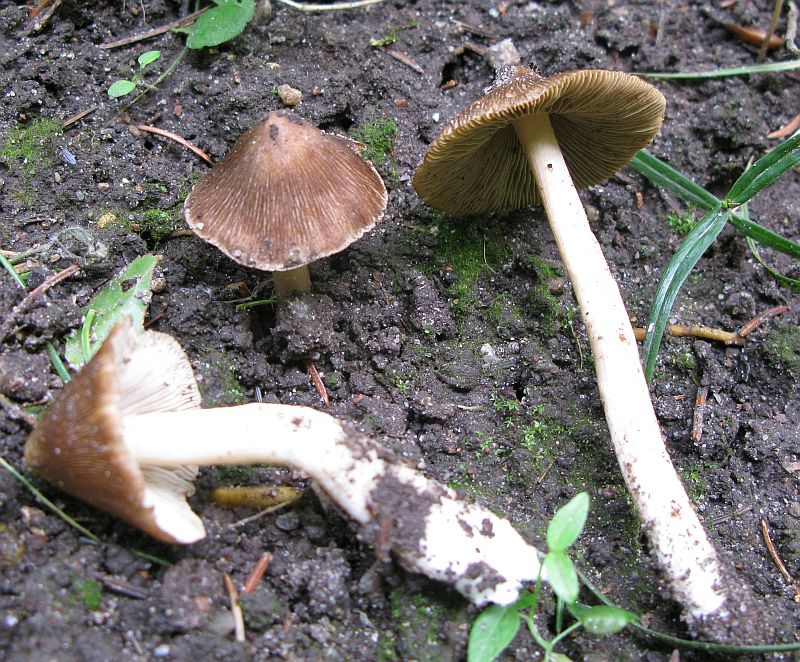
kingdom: Fungi
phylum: Basidiomycota
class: Agaricomycetes
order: Agaricales
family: Inocybaceae
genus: Inosperma
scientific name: Inosperma
